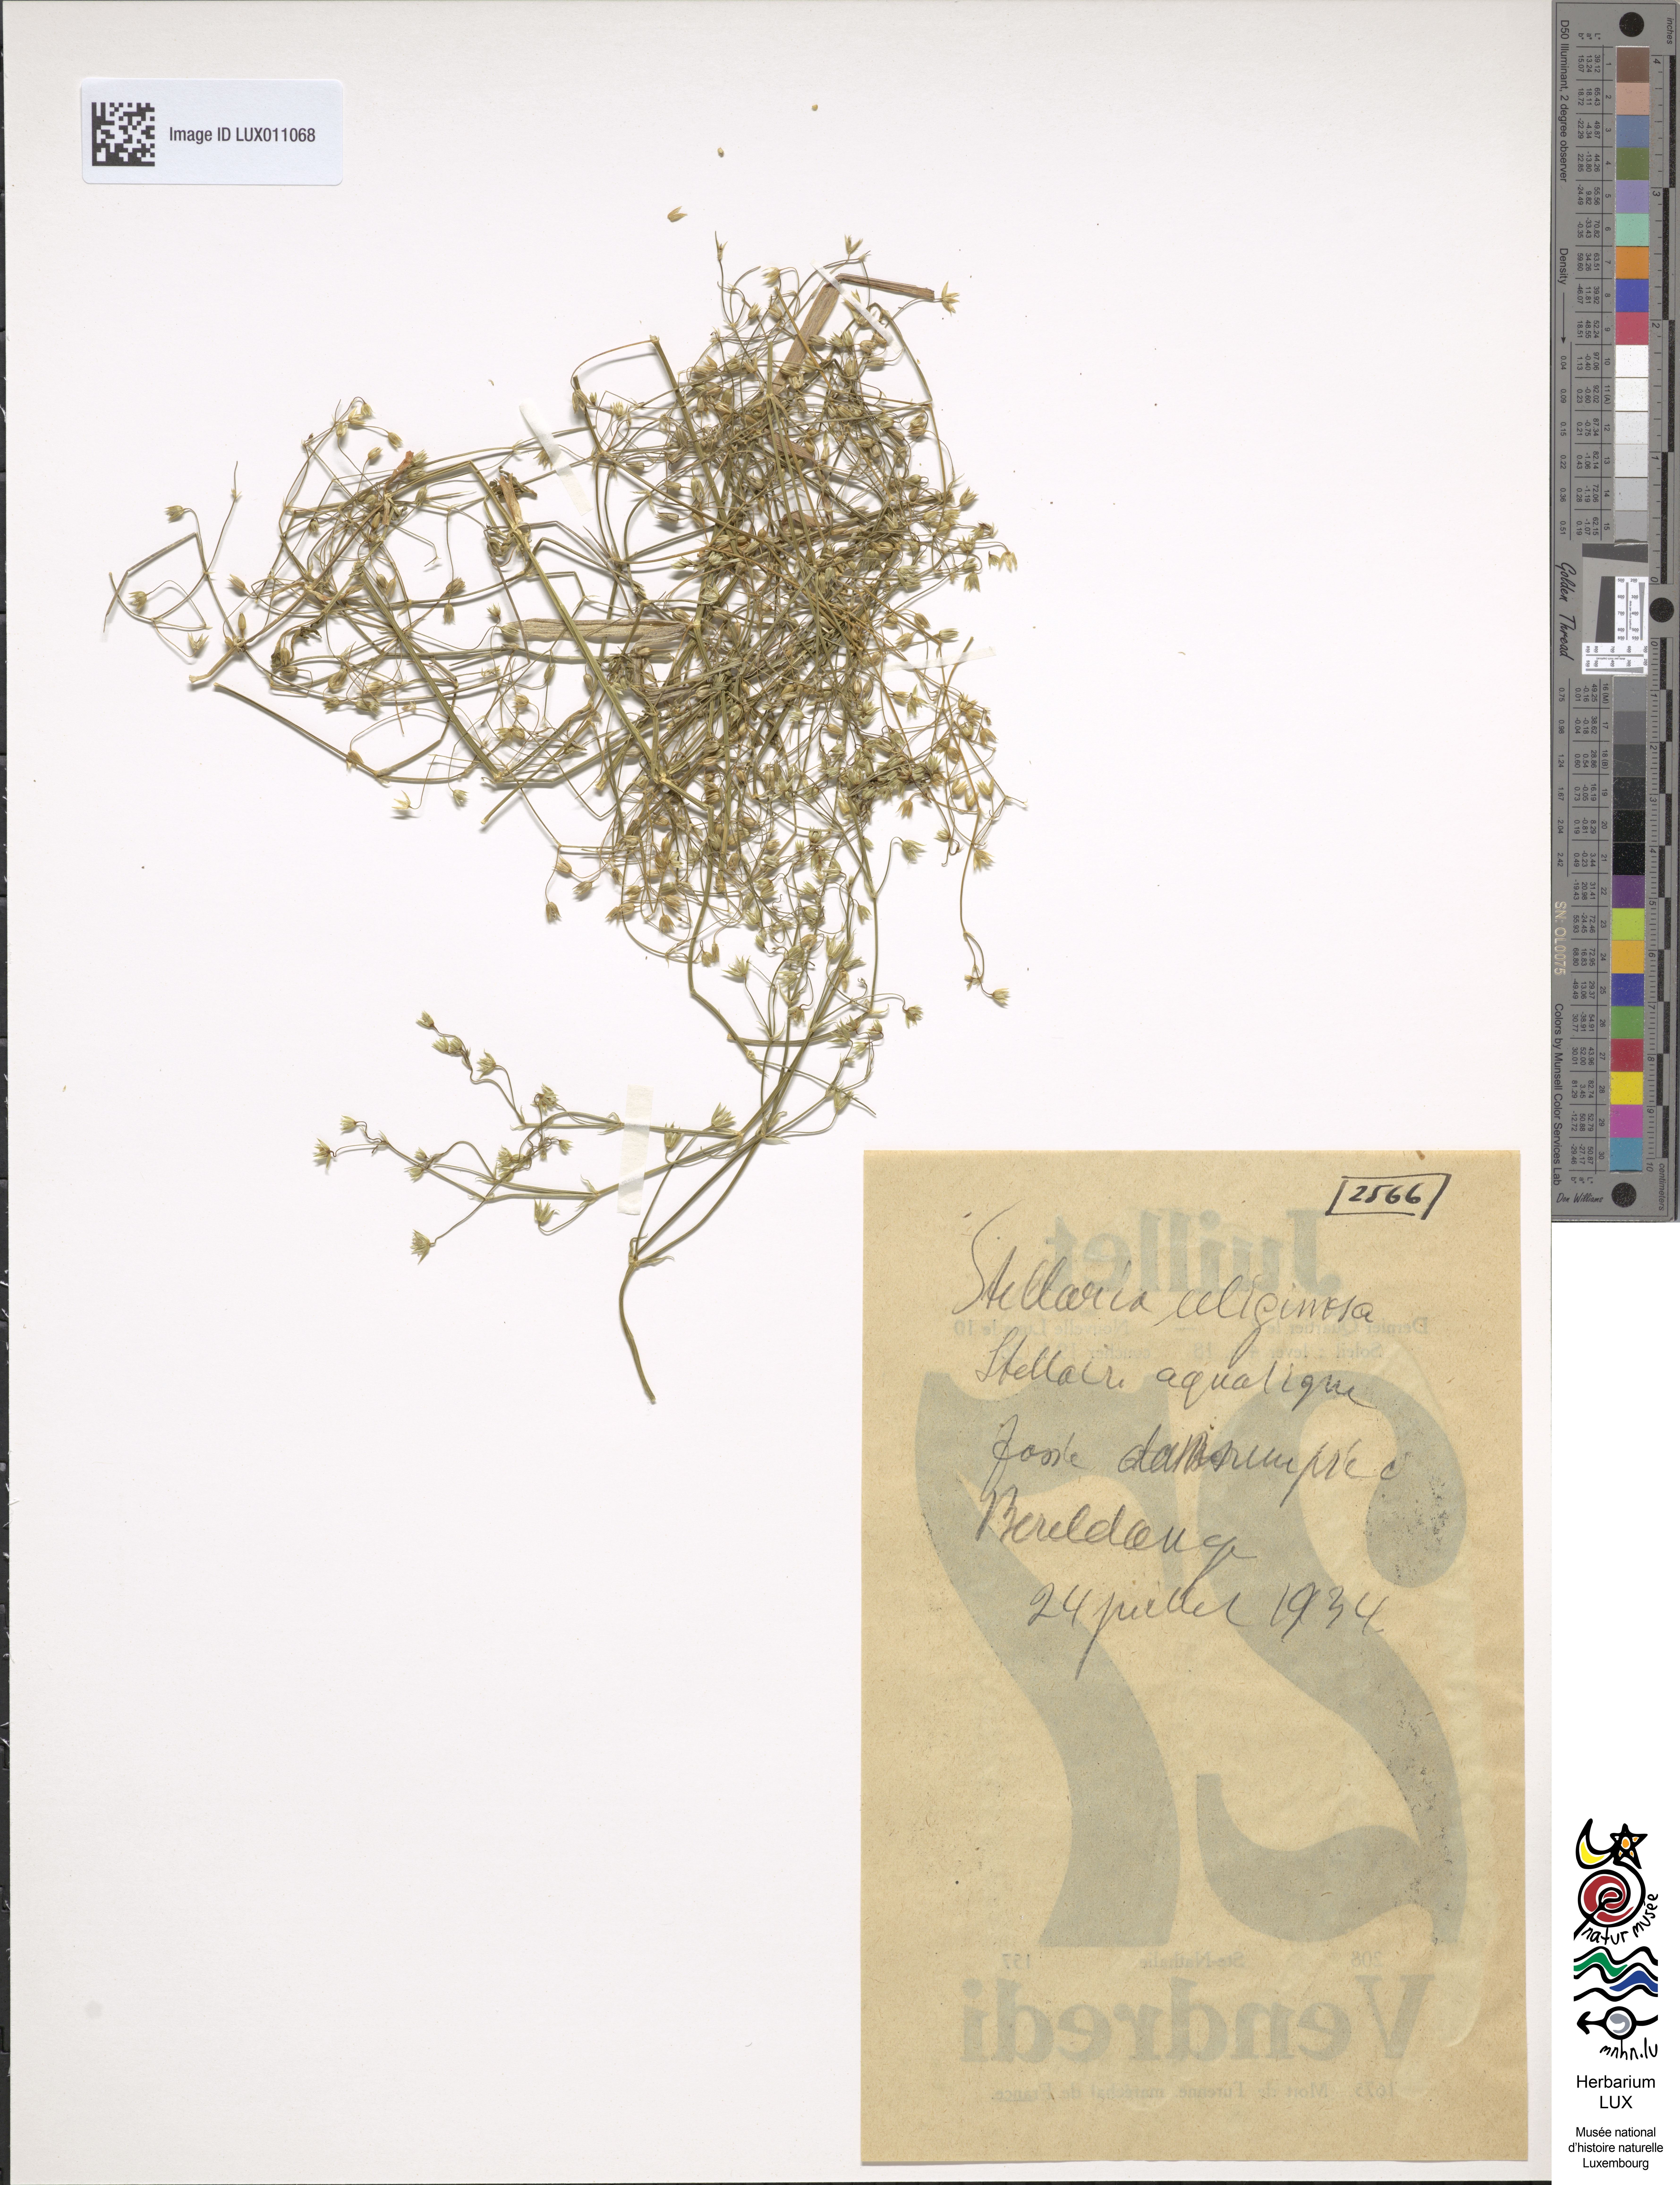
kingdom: Plantae
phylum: Tracheophyta
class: Magnoliopsida
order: Caryophyllales
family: Caryophyllaceae
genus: Stellaria
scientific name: Stellaria alsine
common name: Bog stitchwort
